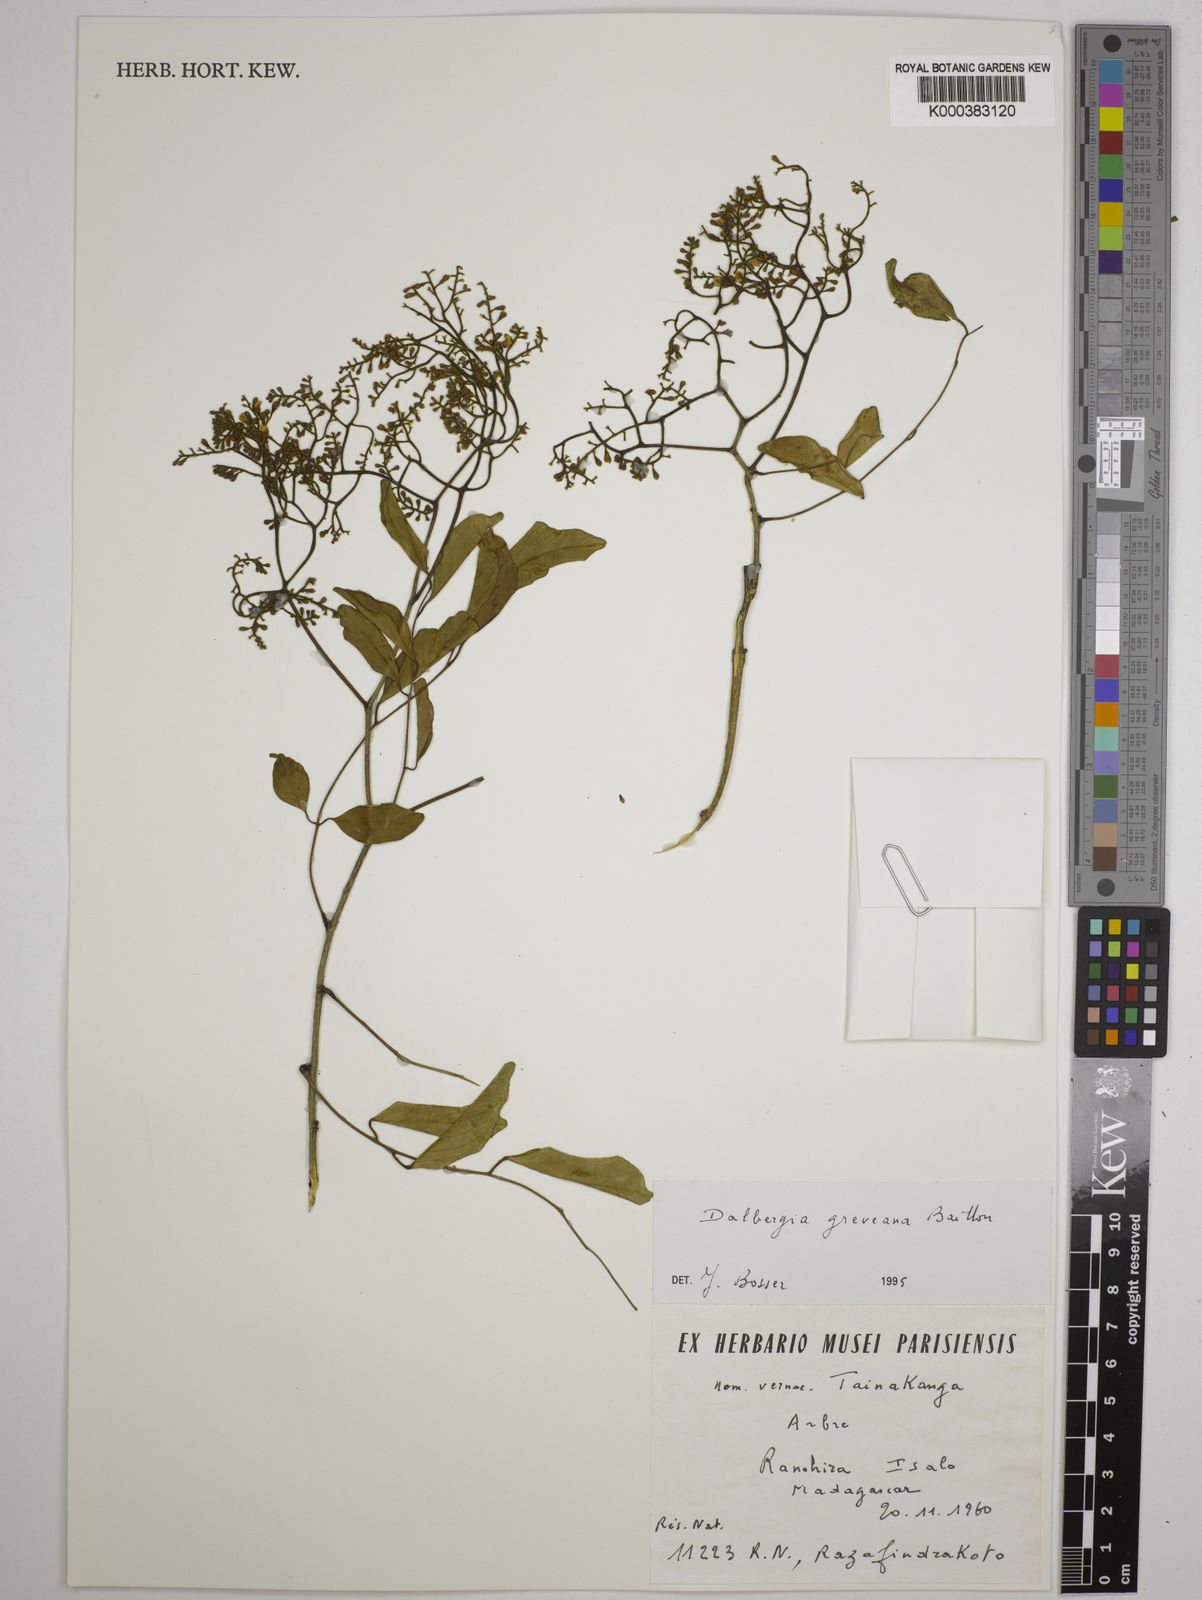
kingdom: Plantae
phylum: Tracheophyta
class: Magnoliopsida
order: Fabales
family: Fabaceae
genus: Dalbergia
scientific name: Dalbergia greveana
